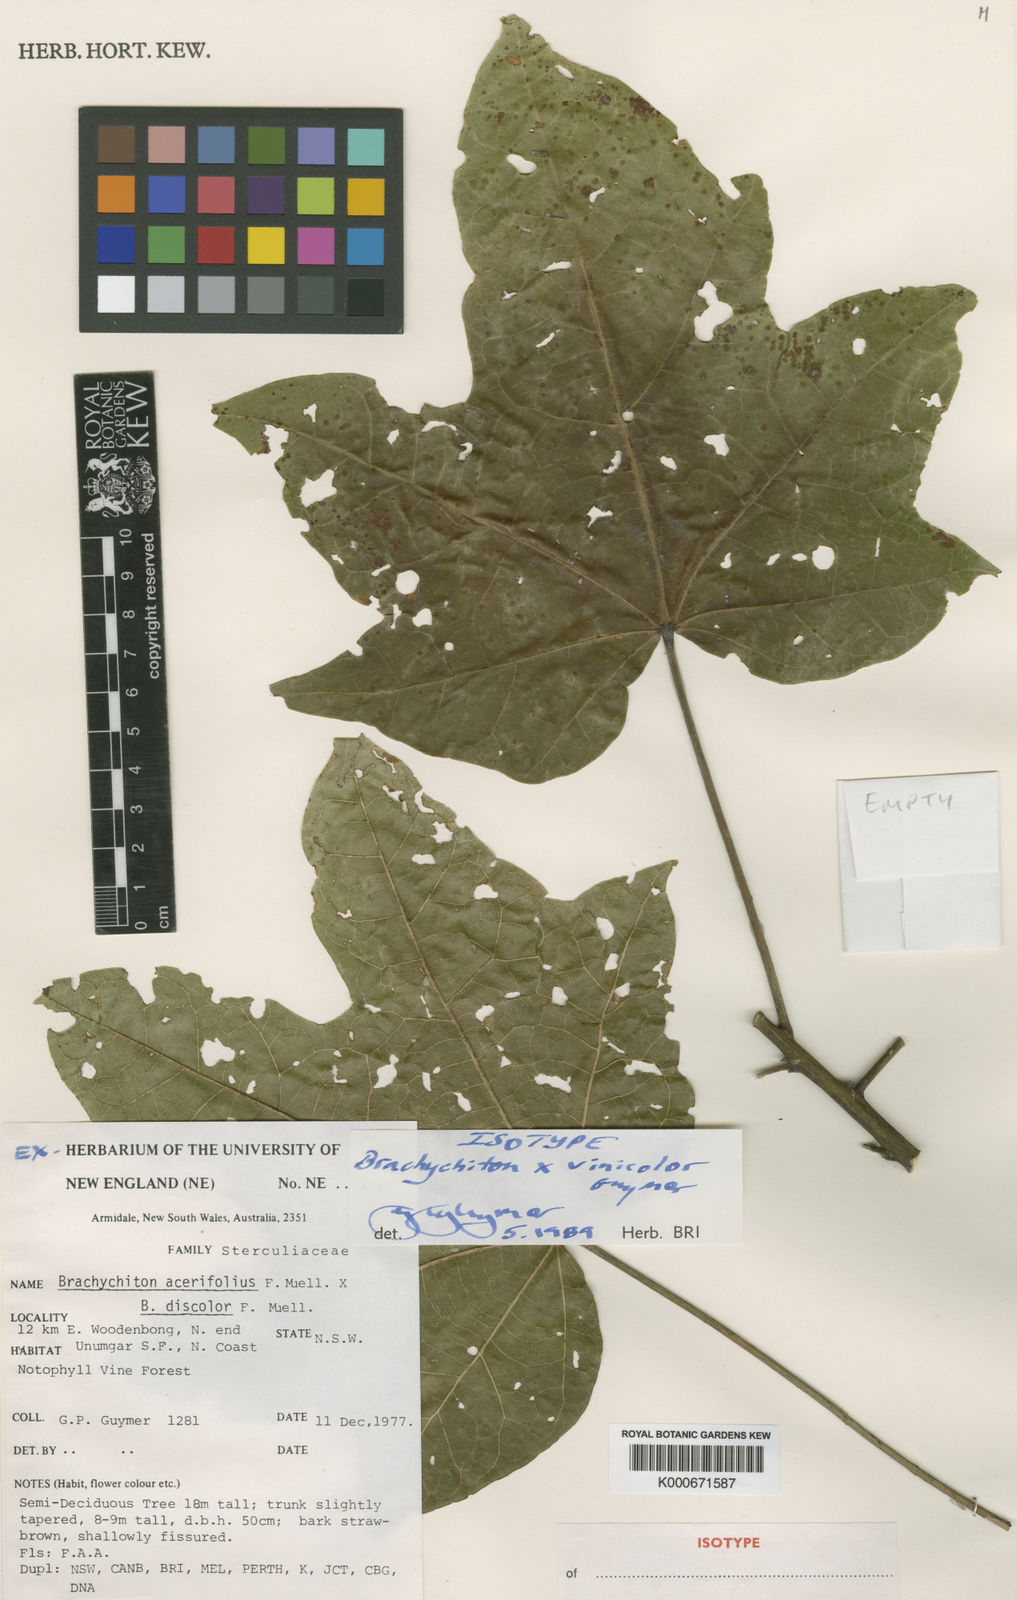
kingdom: Plantae
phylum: Tracheophyta
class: Magnoliopsida
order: Malvales
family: Malvaceae
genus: Brachychiton
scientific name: Brachychiton vinicolor
